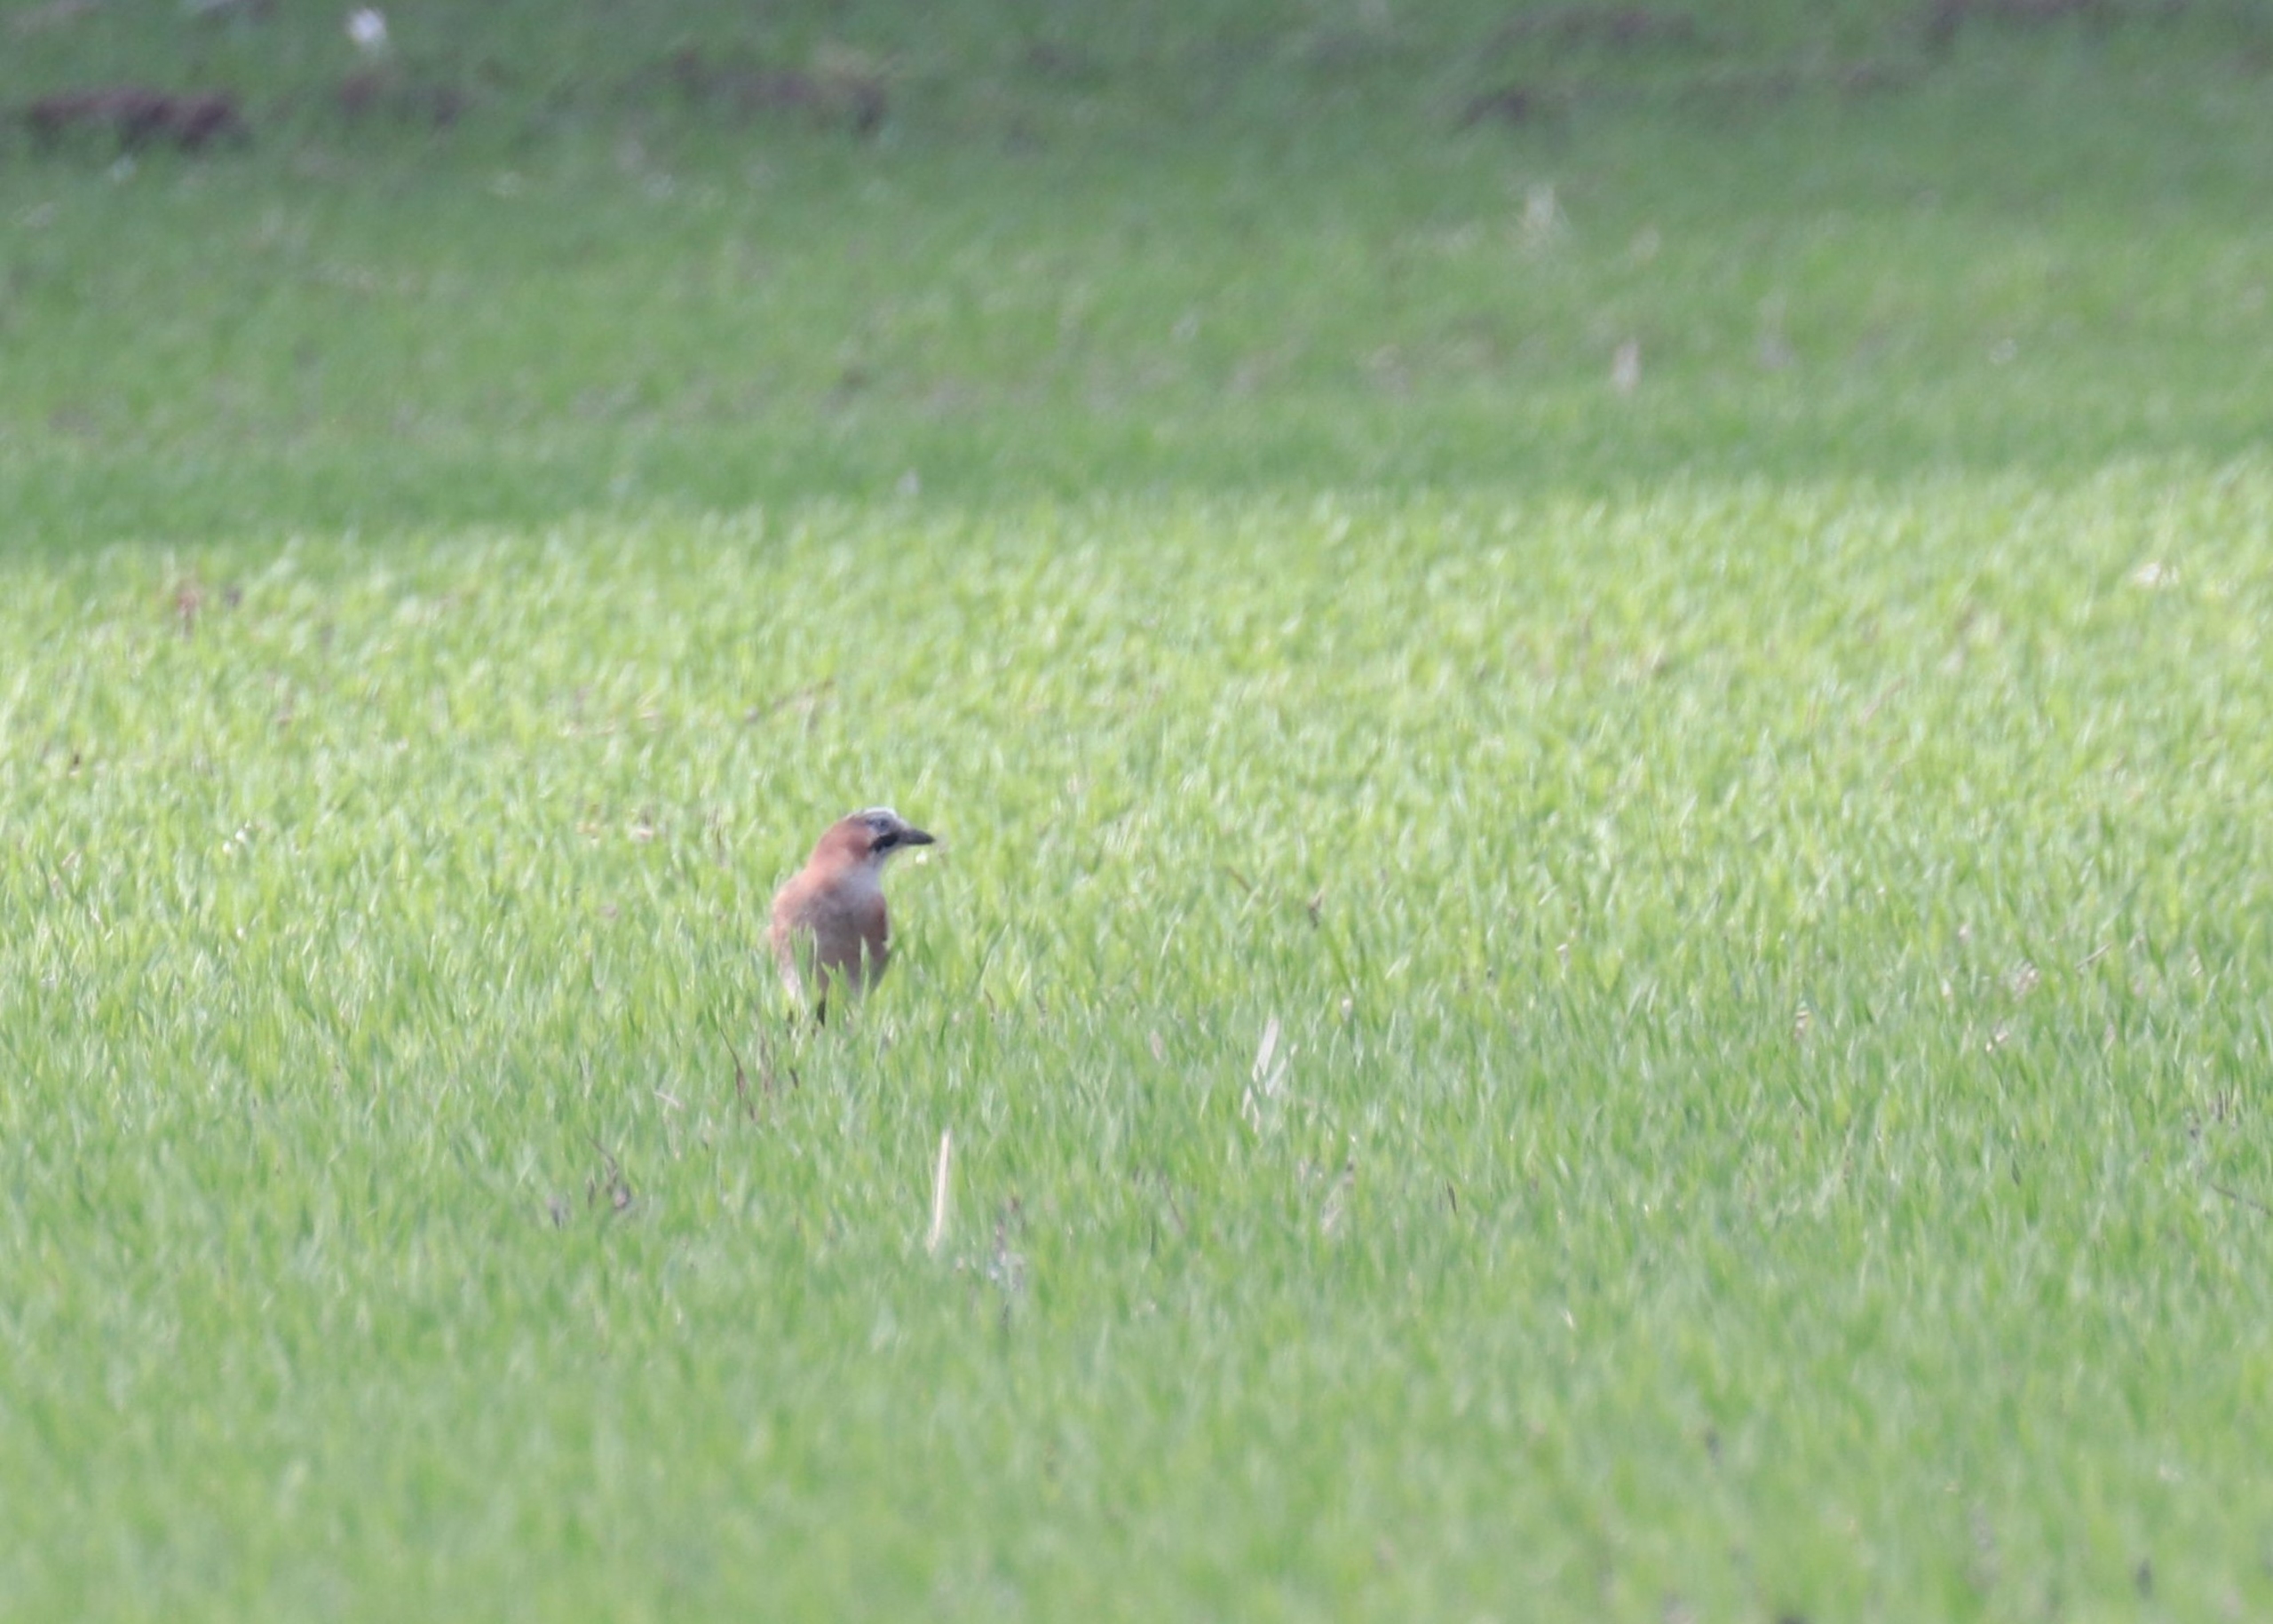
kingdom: Animalia
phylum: Chordata
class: Aves
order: Passeriformes
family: Corvidae
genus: Garrulus
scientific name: Garrulus glandarius
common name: Skovskade
